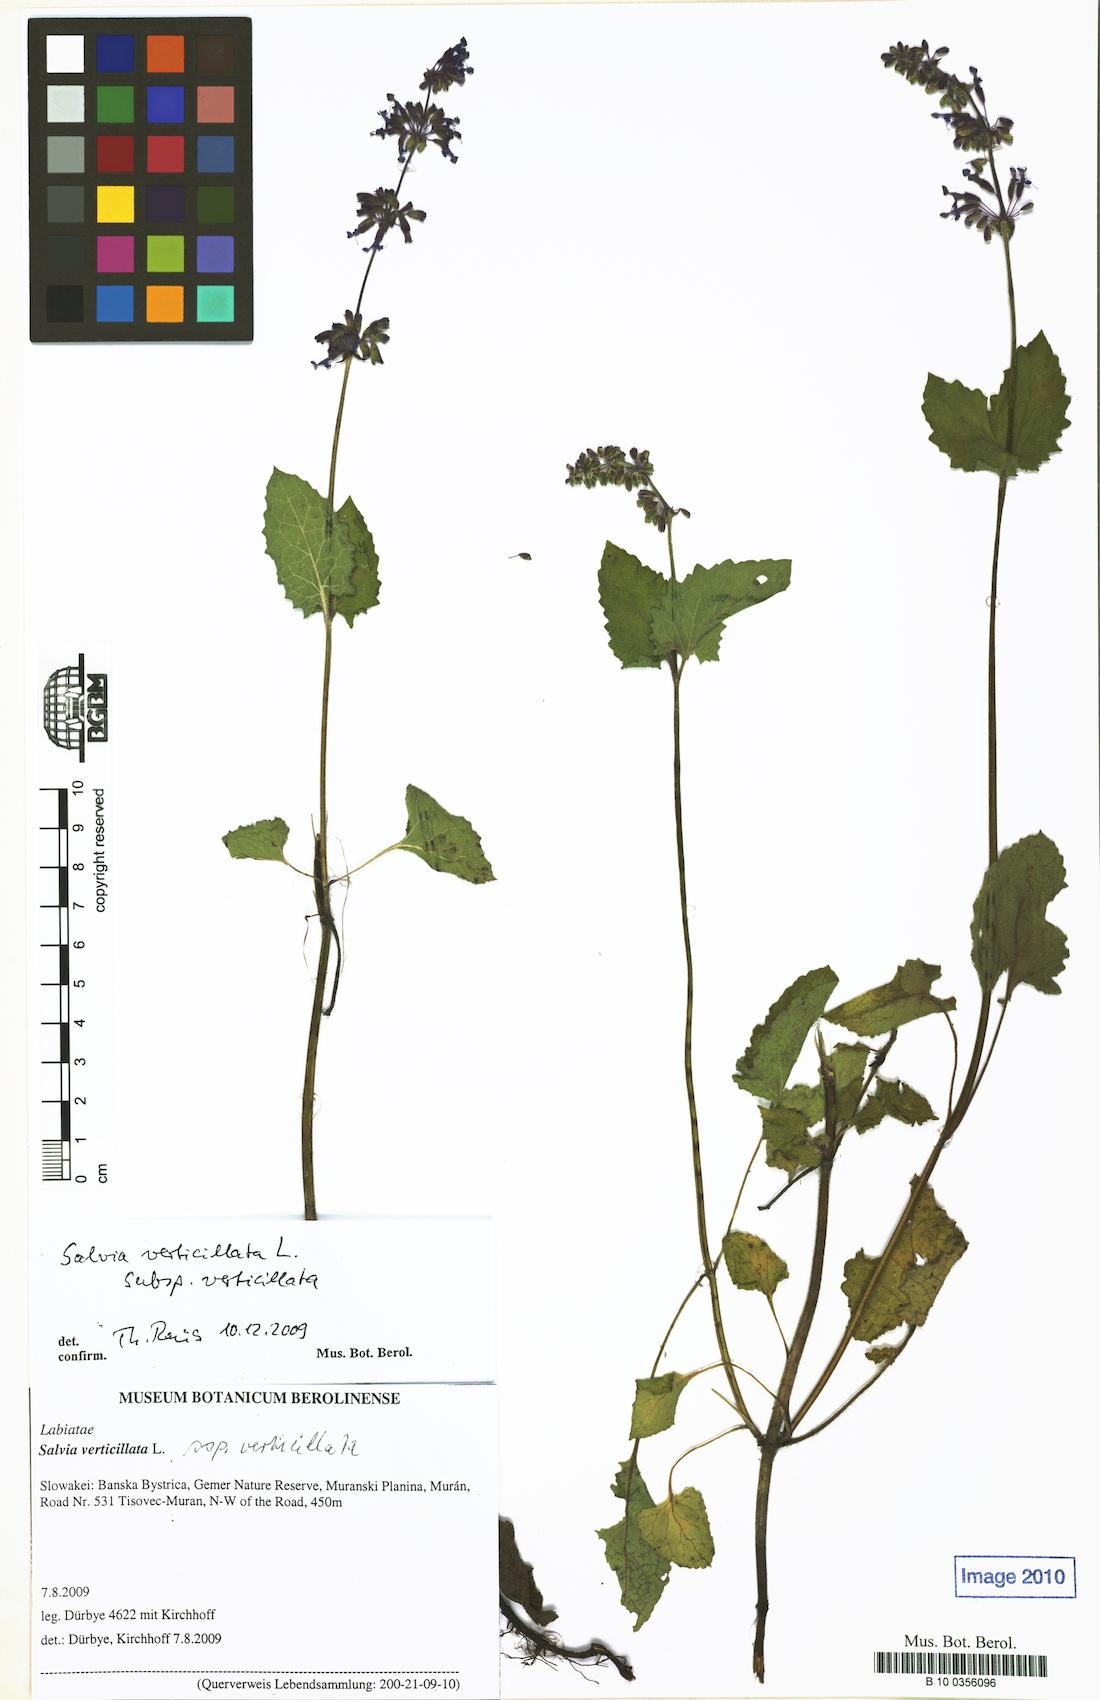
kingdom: Plantae
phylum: Tracheophyta
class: Magnoliopsida
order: Lamiales
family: Lamiaceae
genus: Salvia
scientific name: Salvia verticillata
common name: Whorled clary
